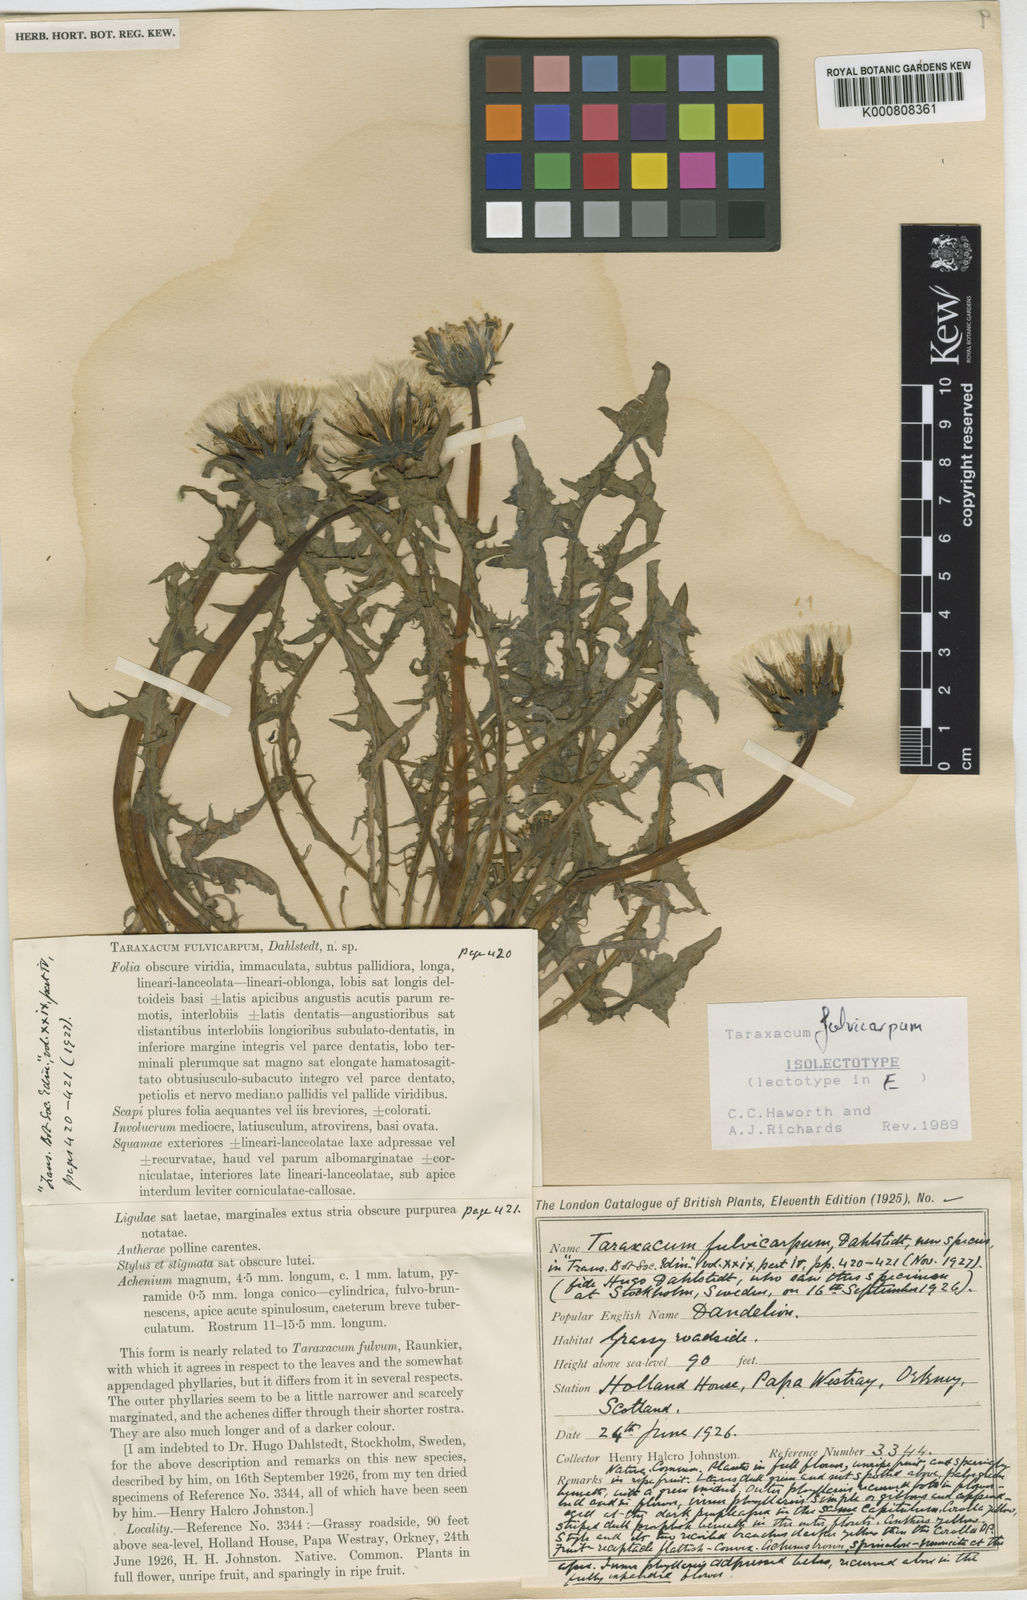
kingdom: Plantae
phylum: Tracheophyta
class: Magnoliopsida
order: Asterales
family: Asteraceae
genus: Taraxacum
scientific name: Taraxacum fulvicarpum
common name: Brown-fruited dandelion
